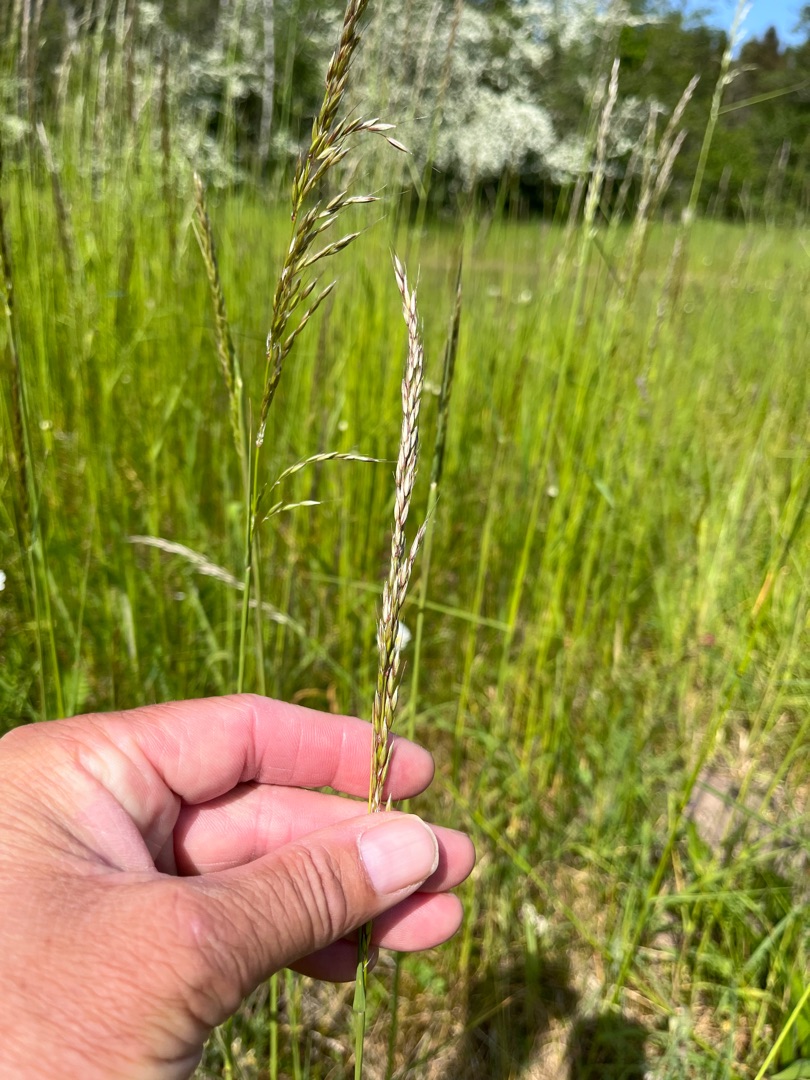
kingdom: Plantae
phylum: Tracheophyta
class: Liliopsida
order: Poales
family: Poaceae
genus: Arrhenatherum
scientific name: Arrhenatherum elatius
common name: Draphavre
